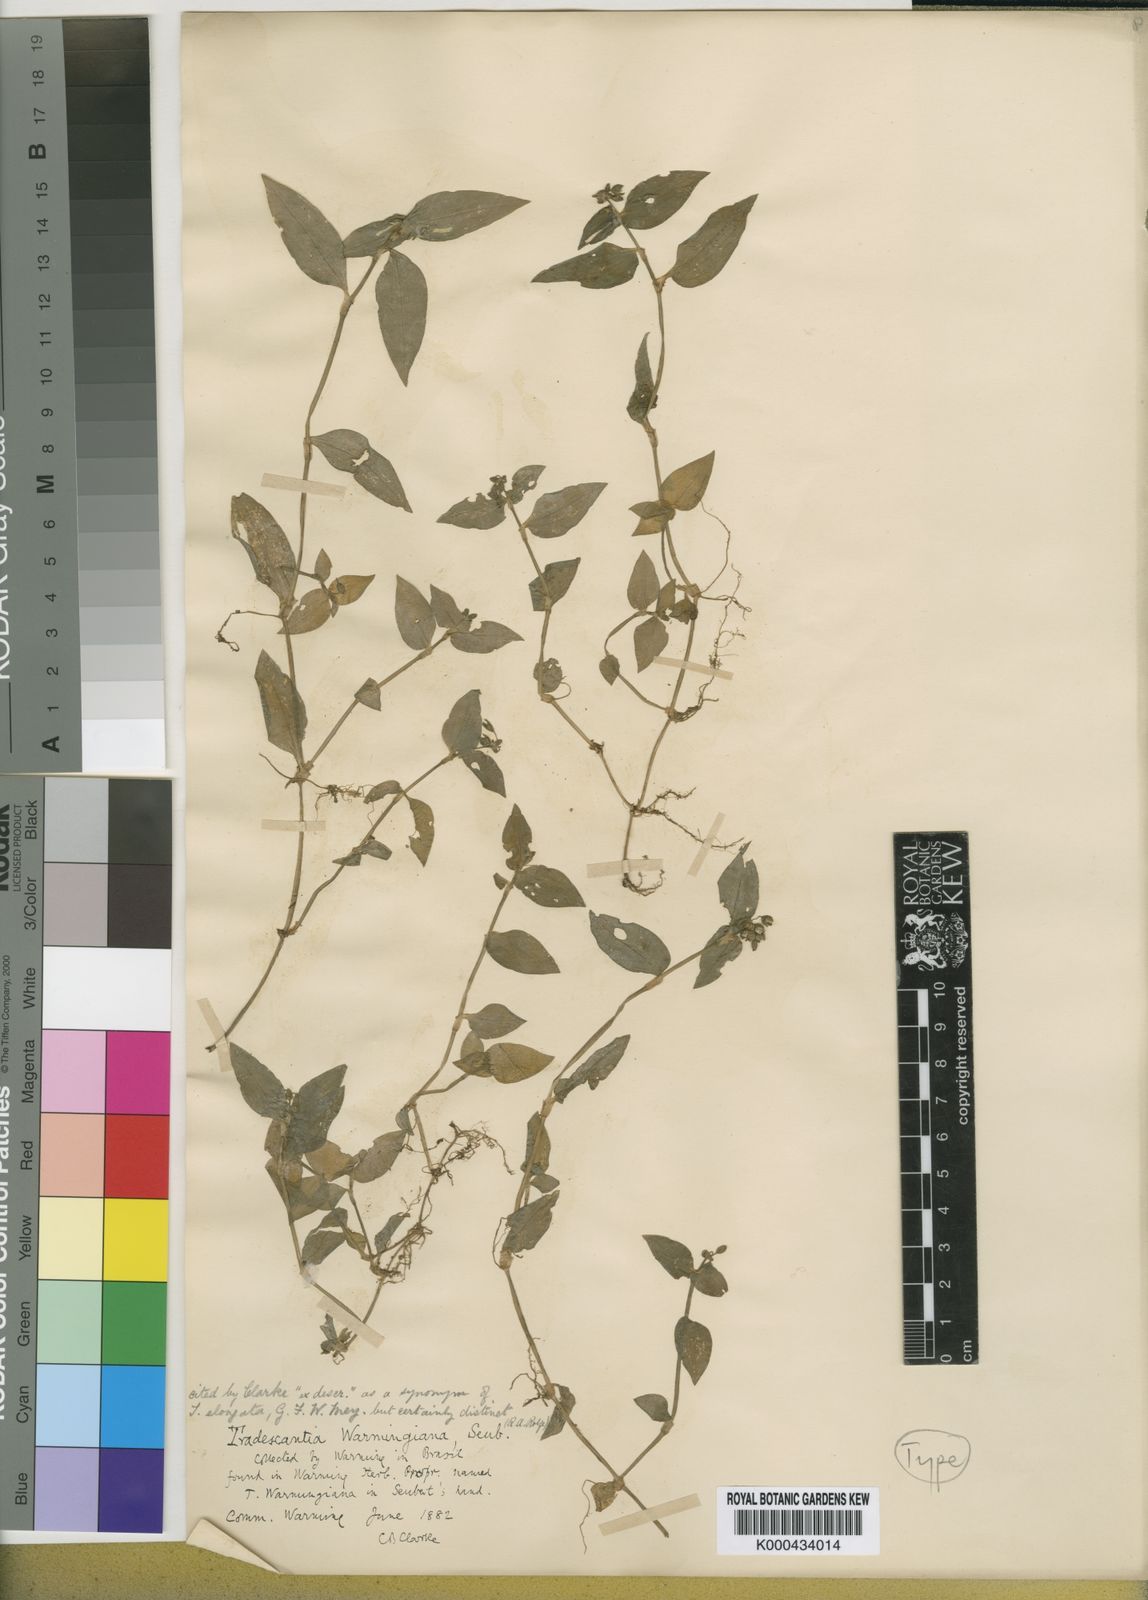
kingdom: Plantae
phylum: Tracheophyta
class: Liliopsida
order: Commelinales
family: Commelinaceae
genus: Callisia
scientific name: Callisia warmingiana
